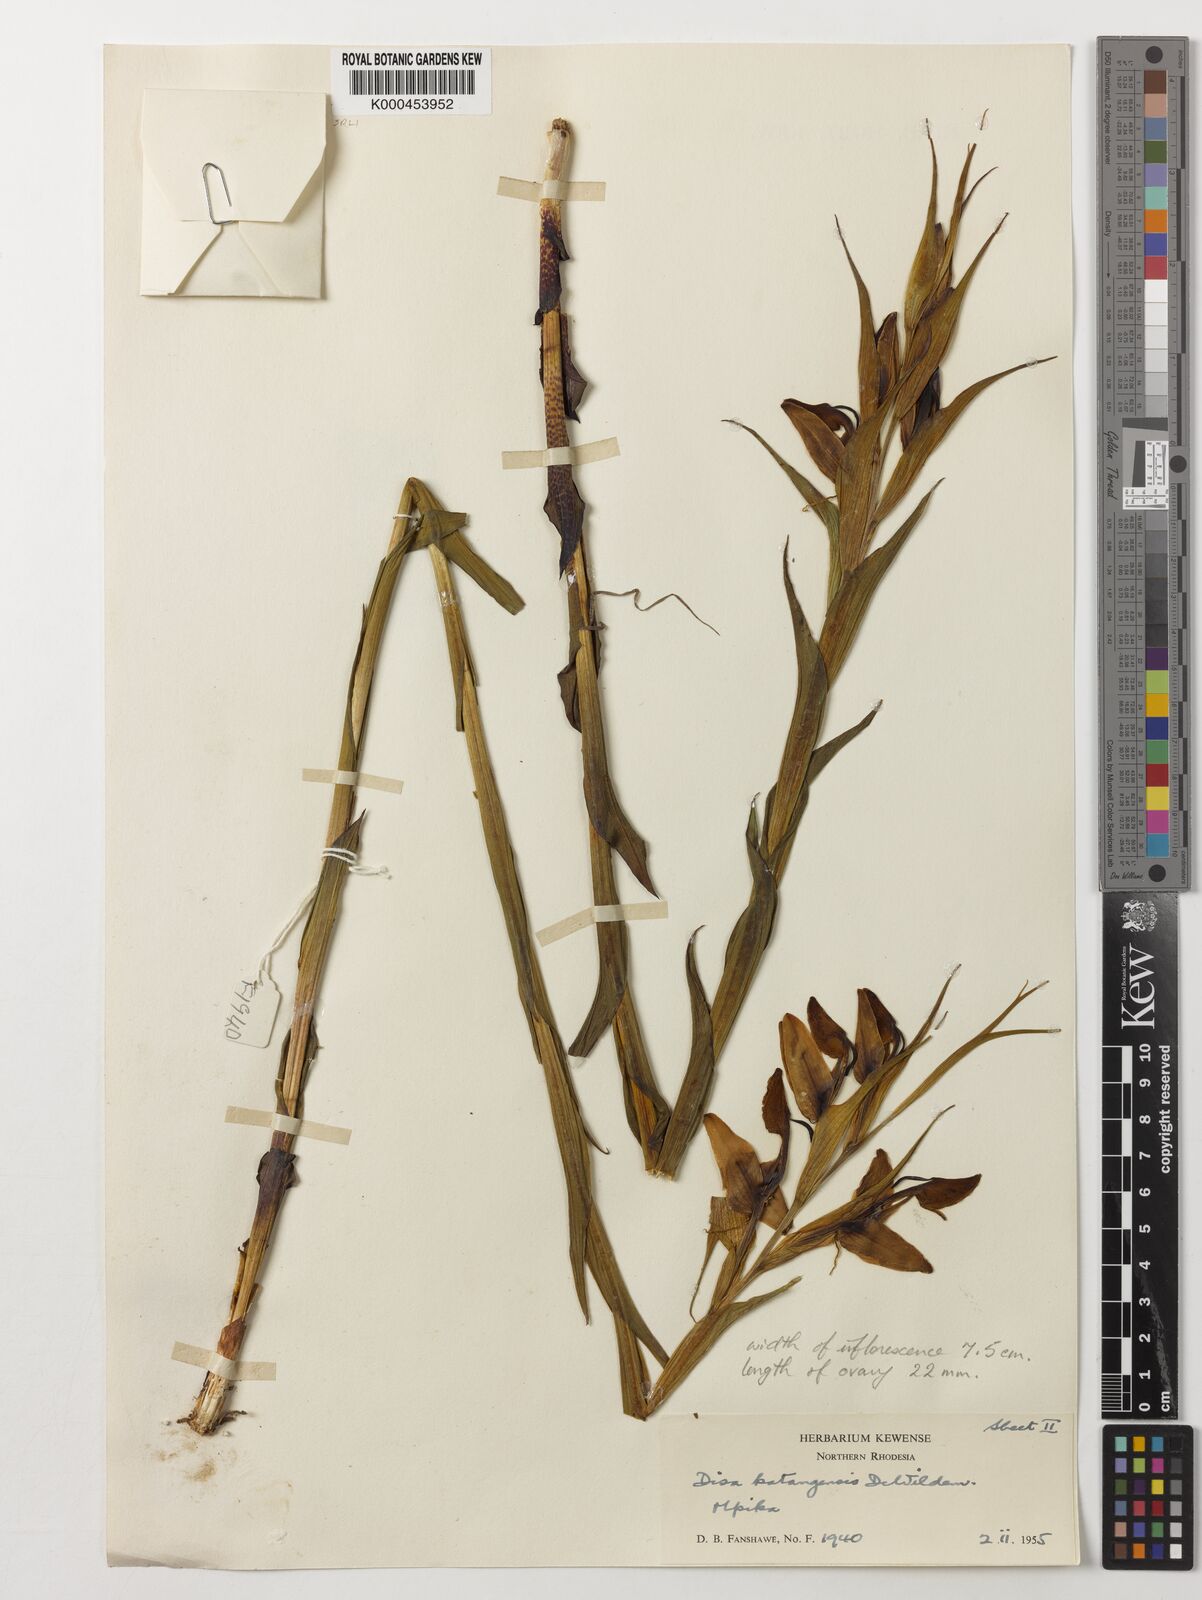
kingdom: Plantae
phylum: Tracheophyta
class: Liliopsida
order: Asparagales
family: Orchidaceae
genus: Disa
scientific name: Disa katangensis
